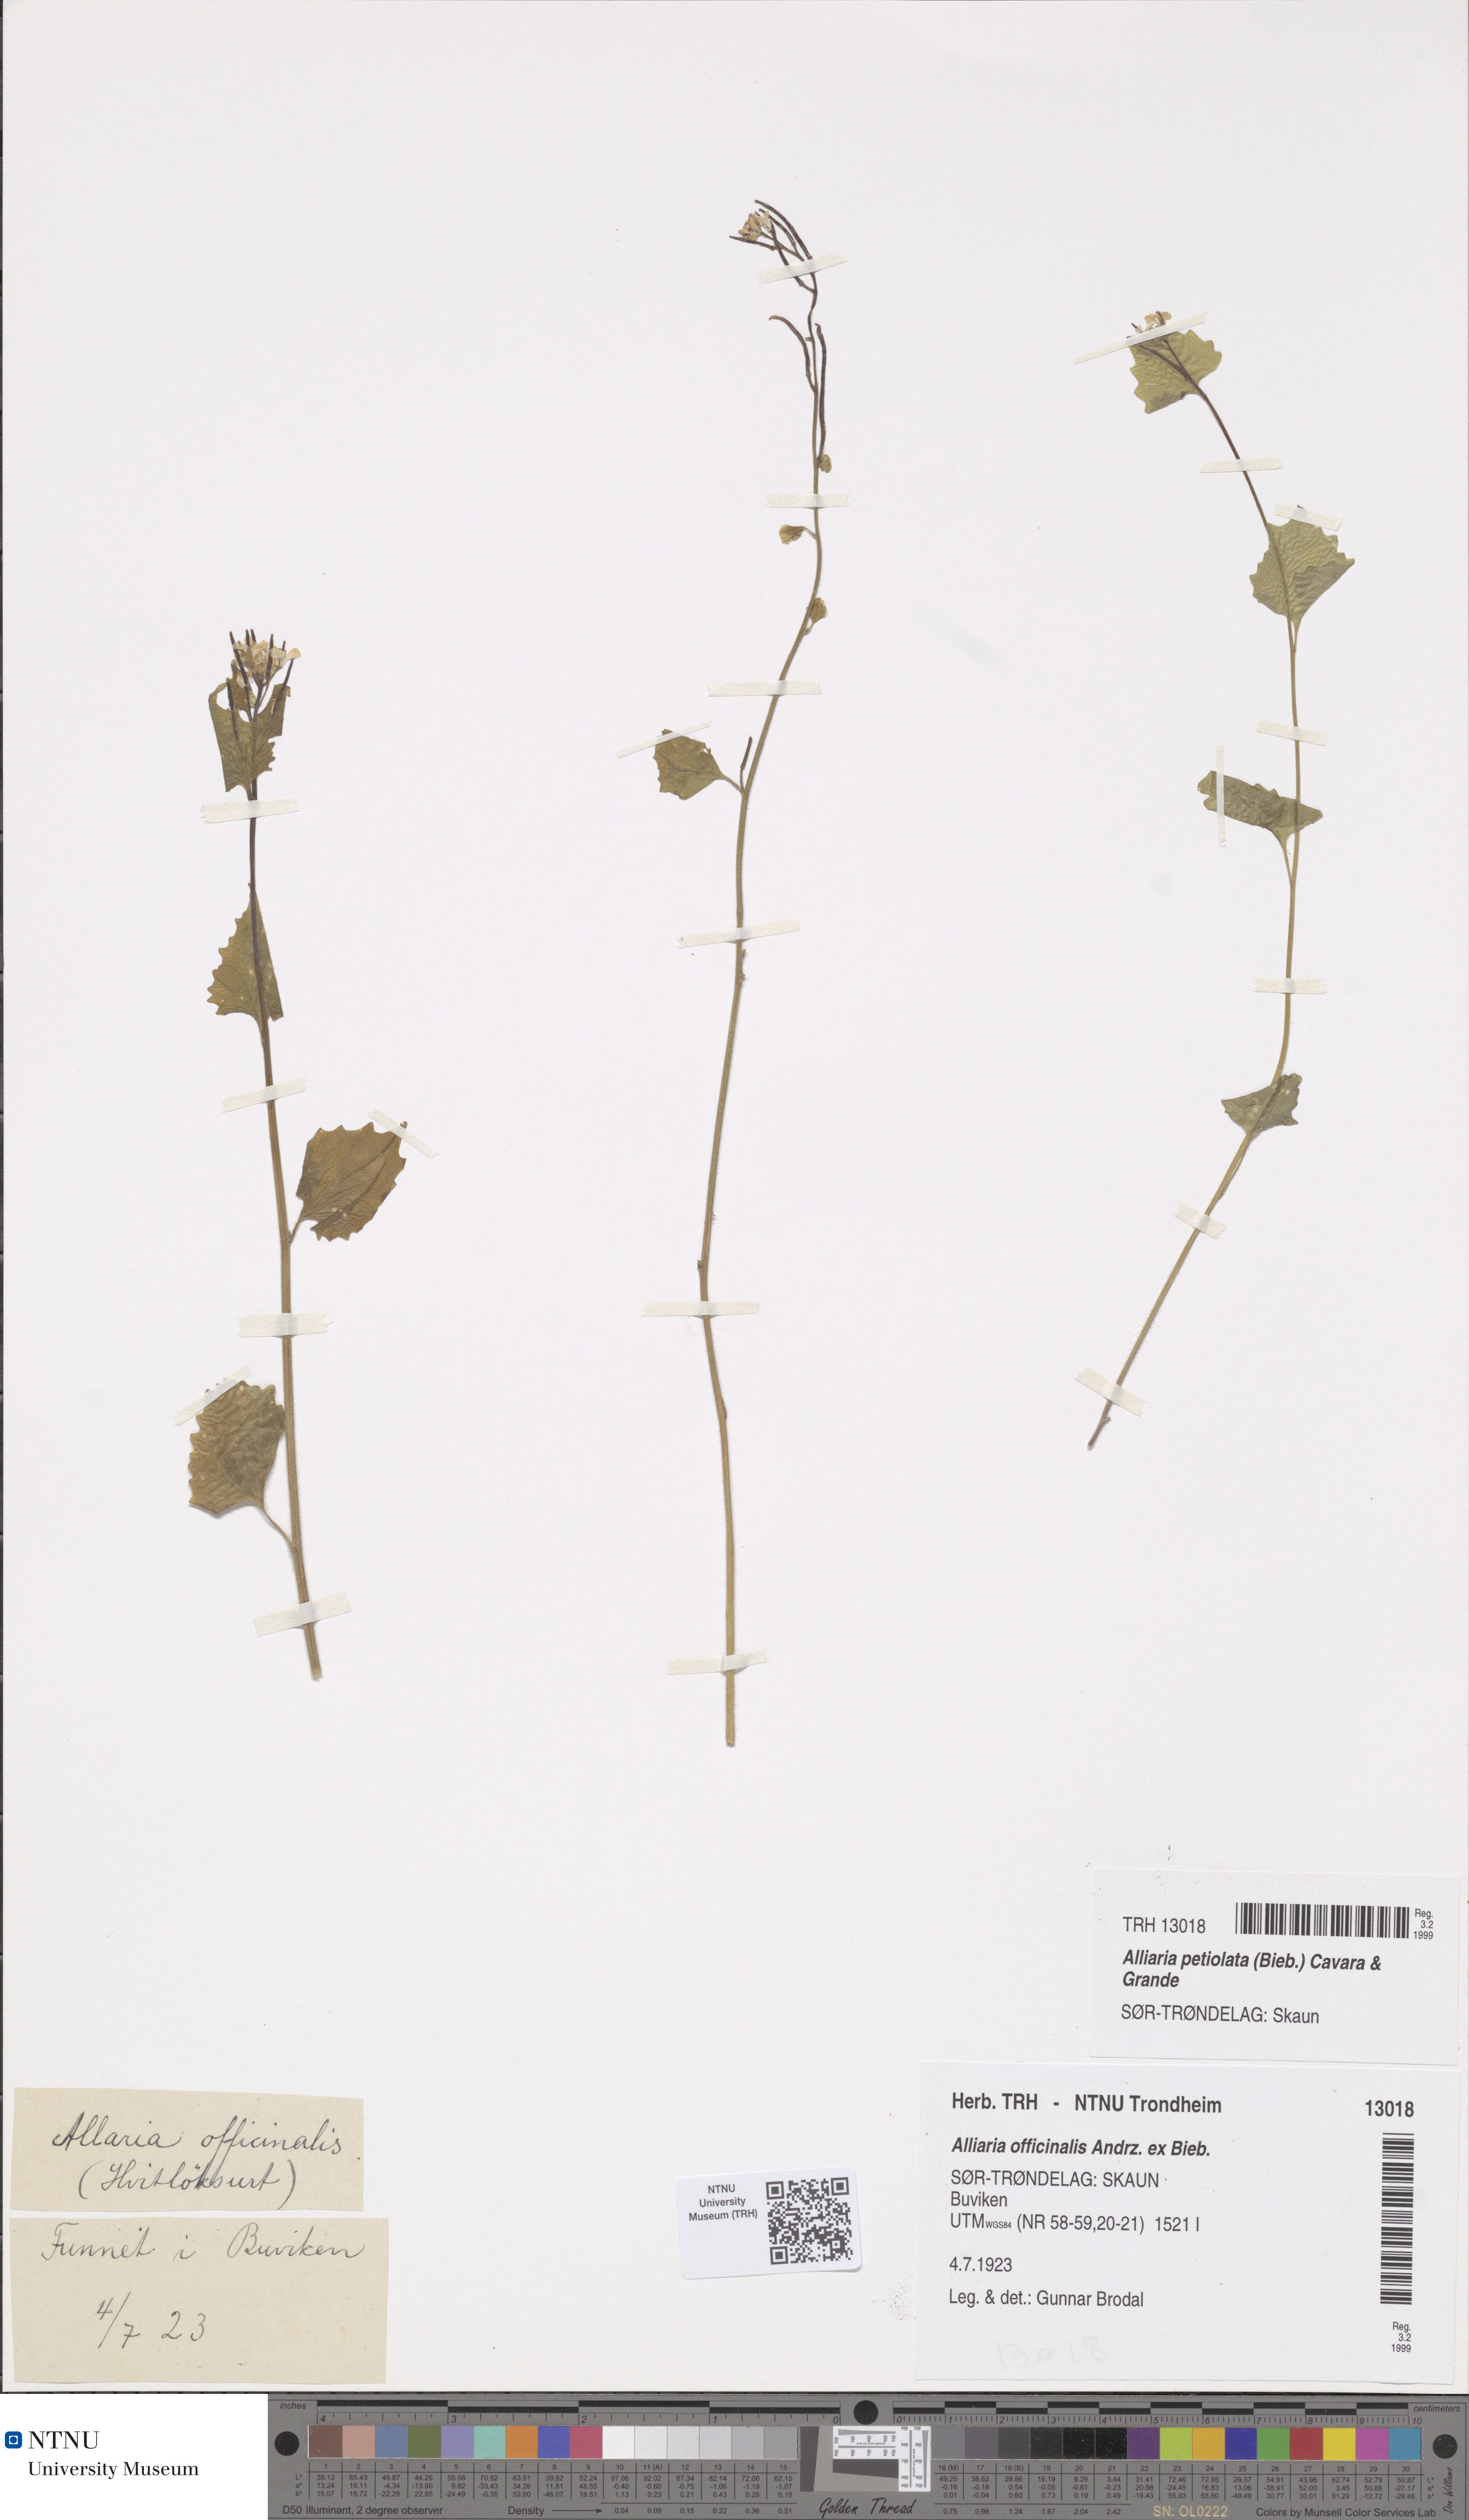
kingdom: Plantae
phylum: Tracheophyta
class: Magnoliopsida
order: Brassicales
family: Brassicaceae
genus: Alliaria
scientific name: Alliaria petiolata
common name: Garlic mustard
